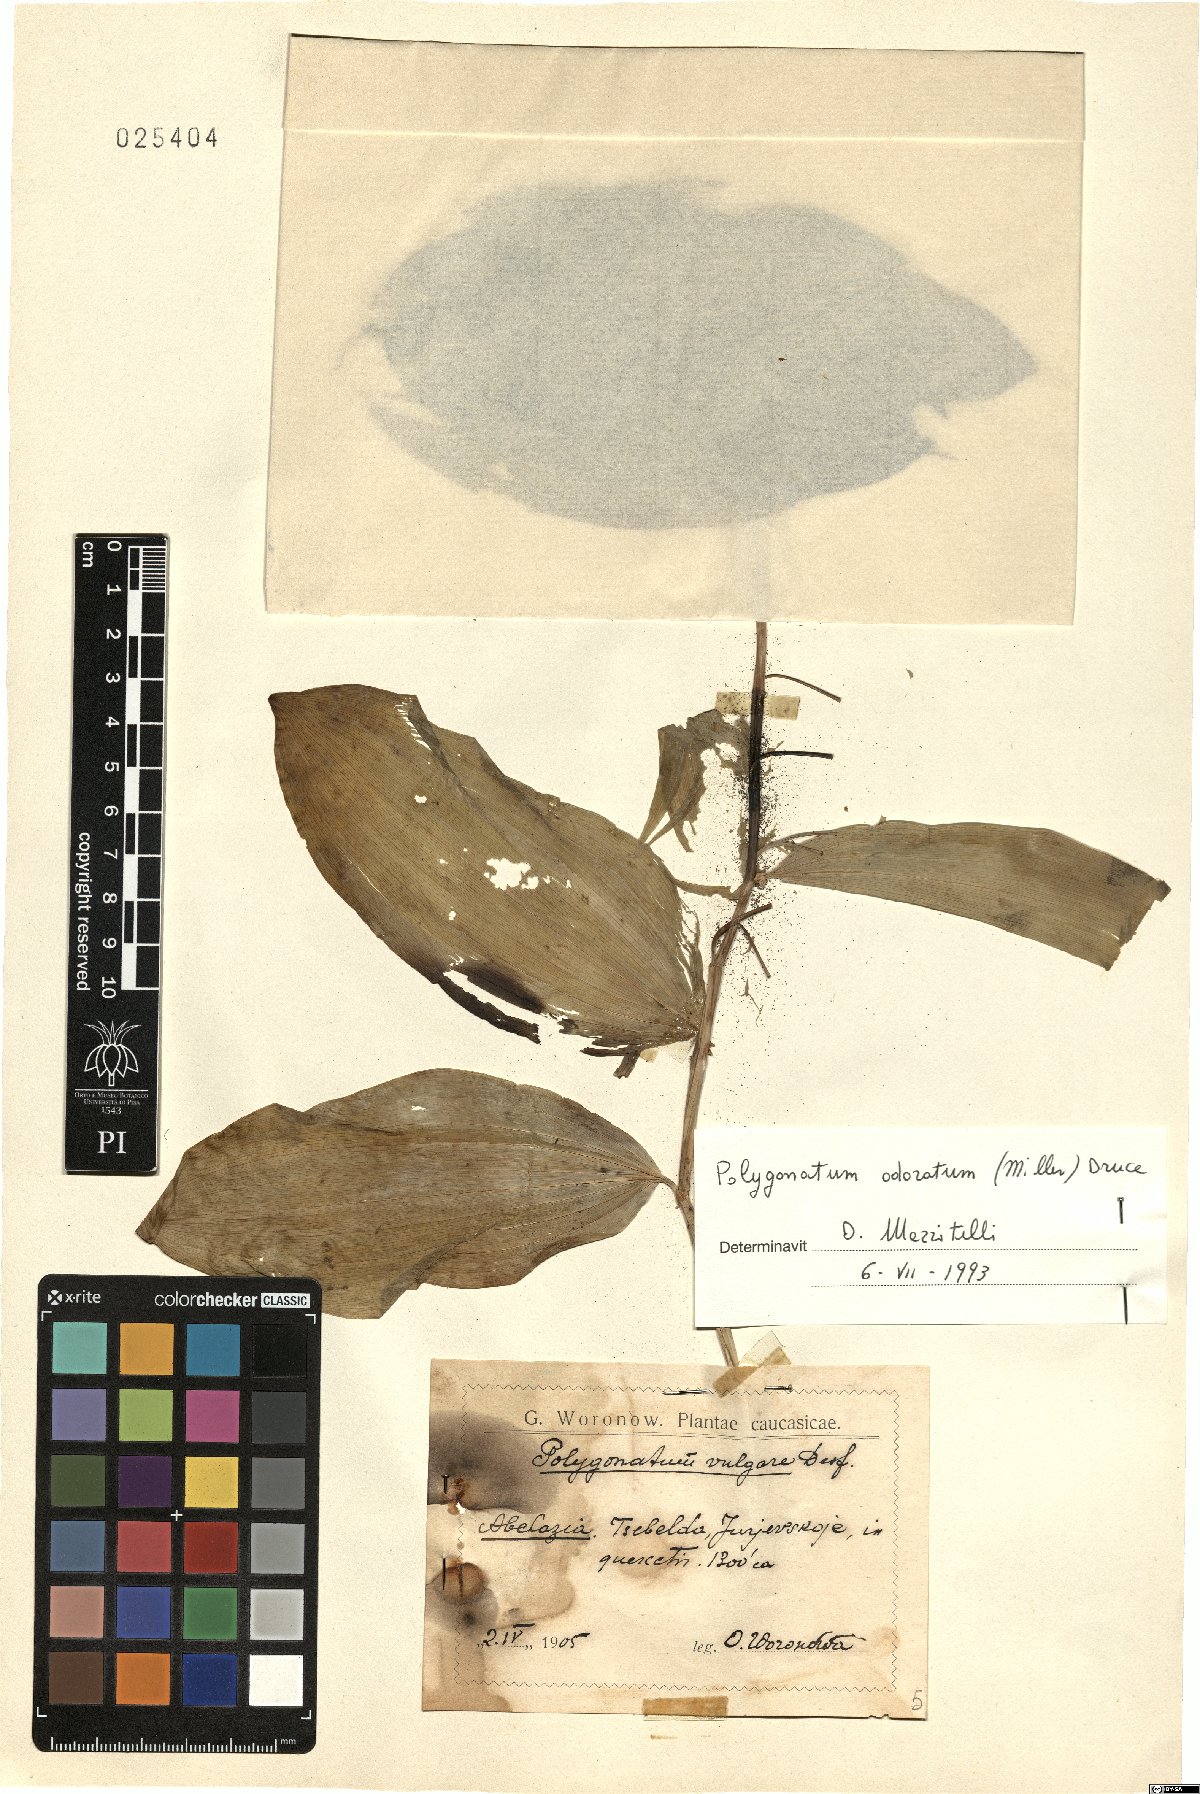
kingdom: Plantae
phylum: Tracheophyta
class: Liliopsida
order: Asparagales
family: Asparagaceae
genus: Polygonatum
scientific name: Polygonatum odoratum
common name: Angular solomon's-seal
